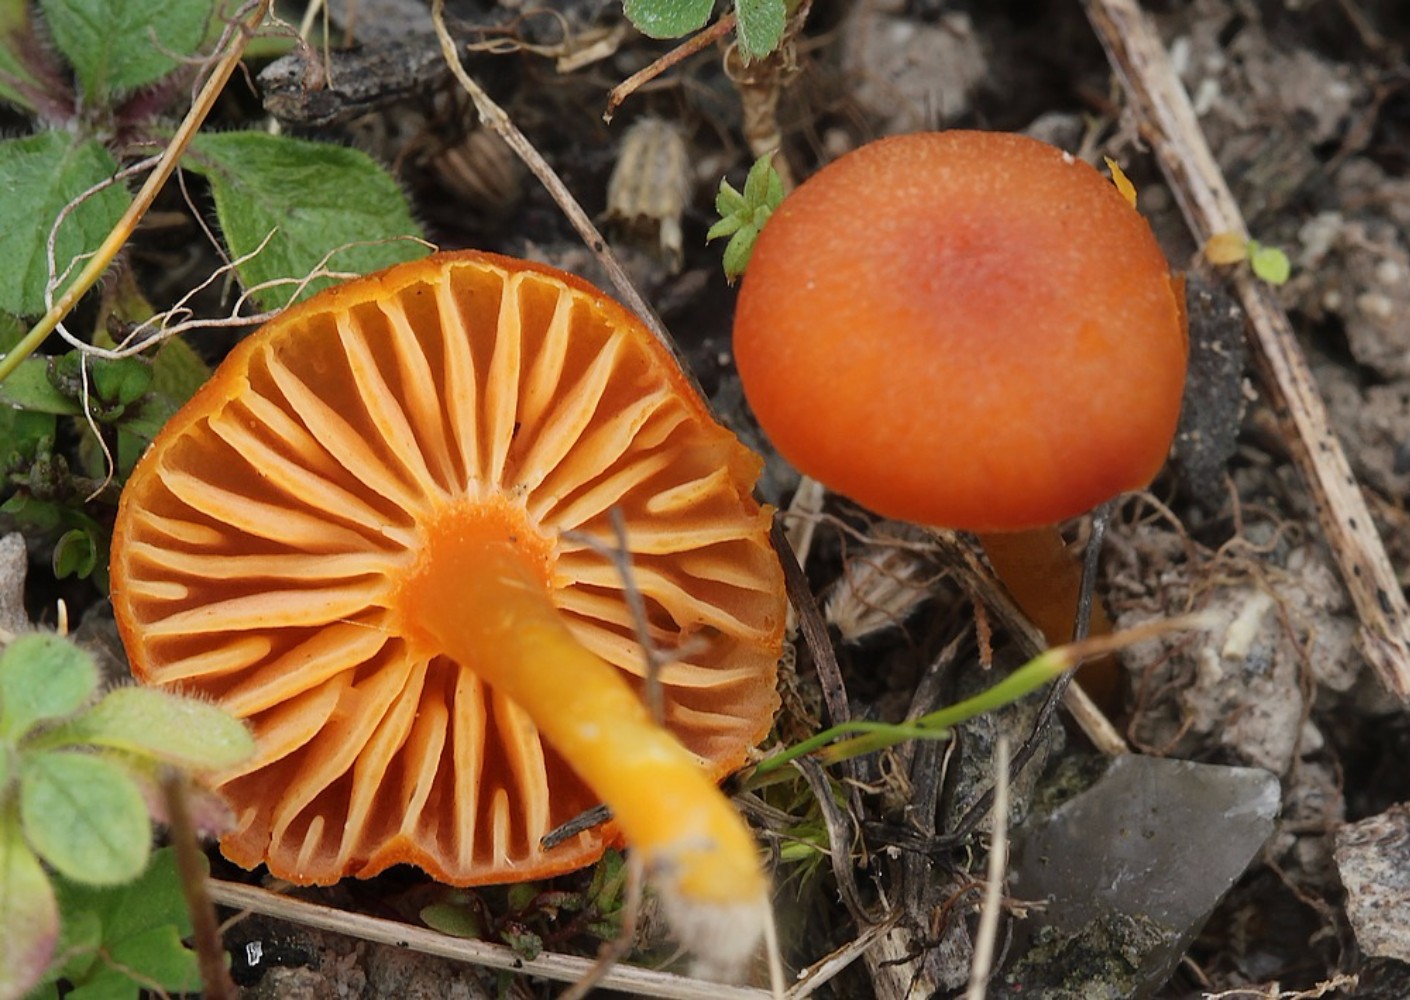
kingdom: Fungi
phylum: Basidiomycota
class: Agaricomycetes
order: Agaricales
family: Hygrophoraceae
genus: Hygrocybe
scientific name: Hygrocybe calciphila
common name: kalk-vokshat
